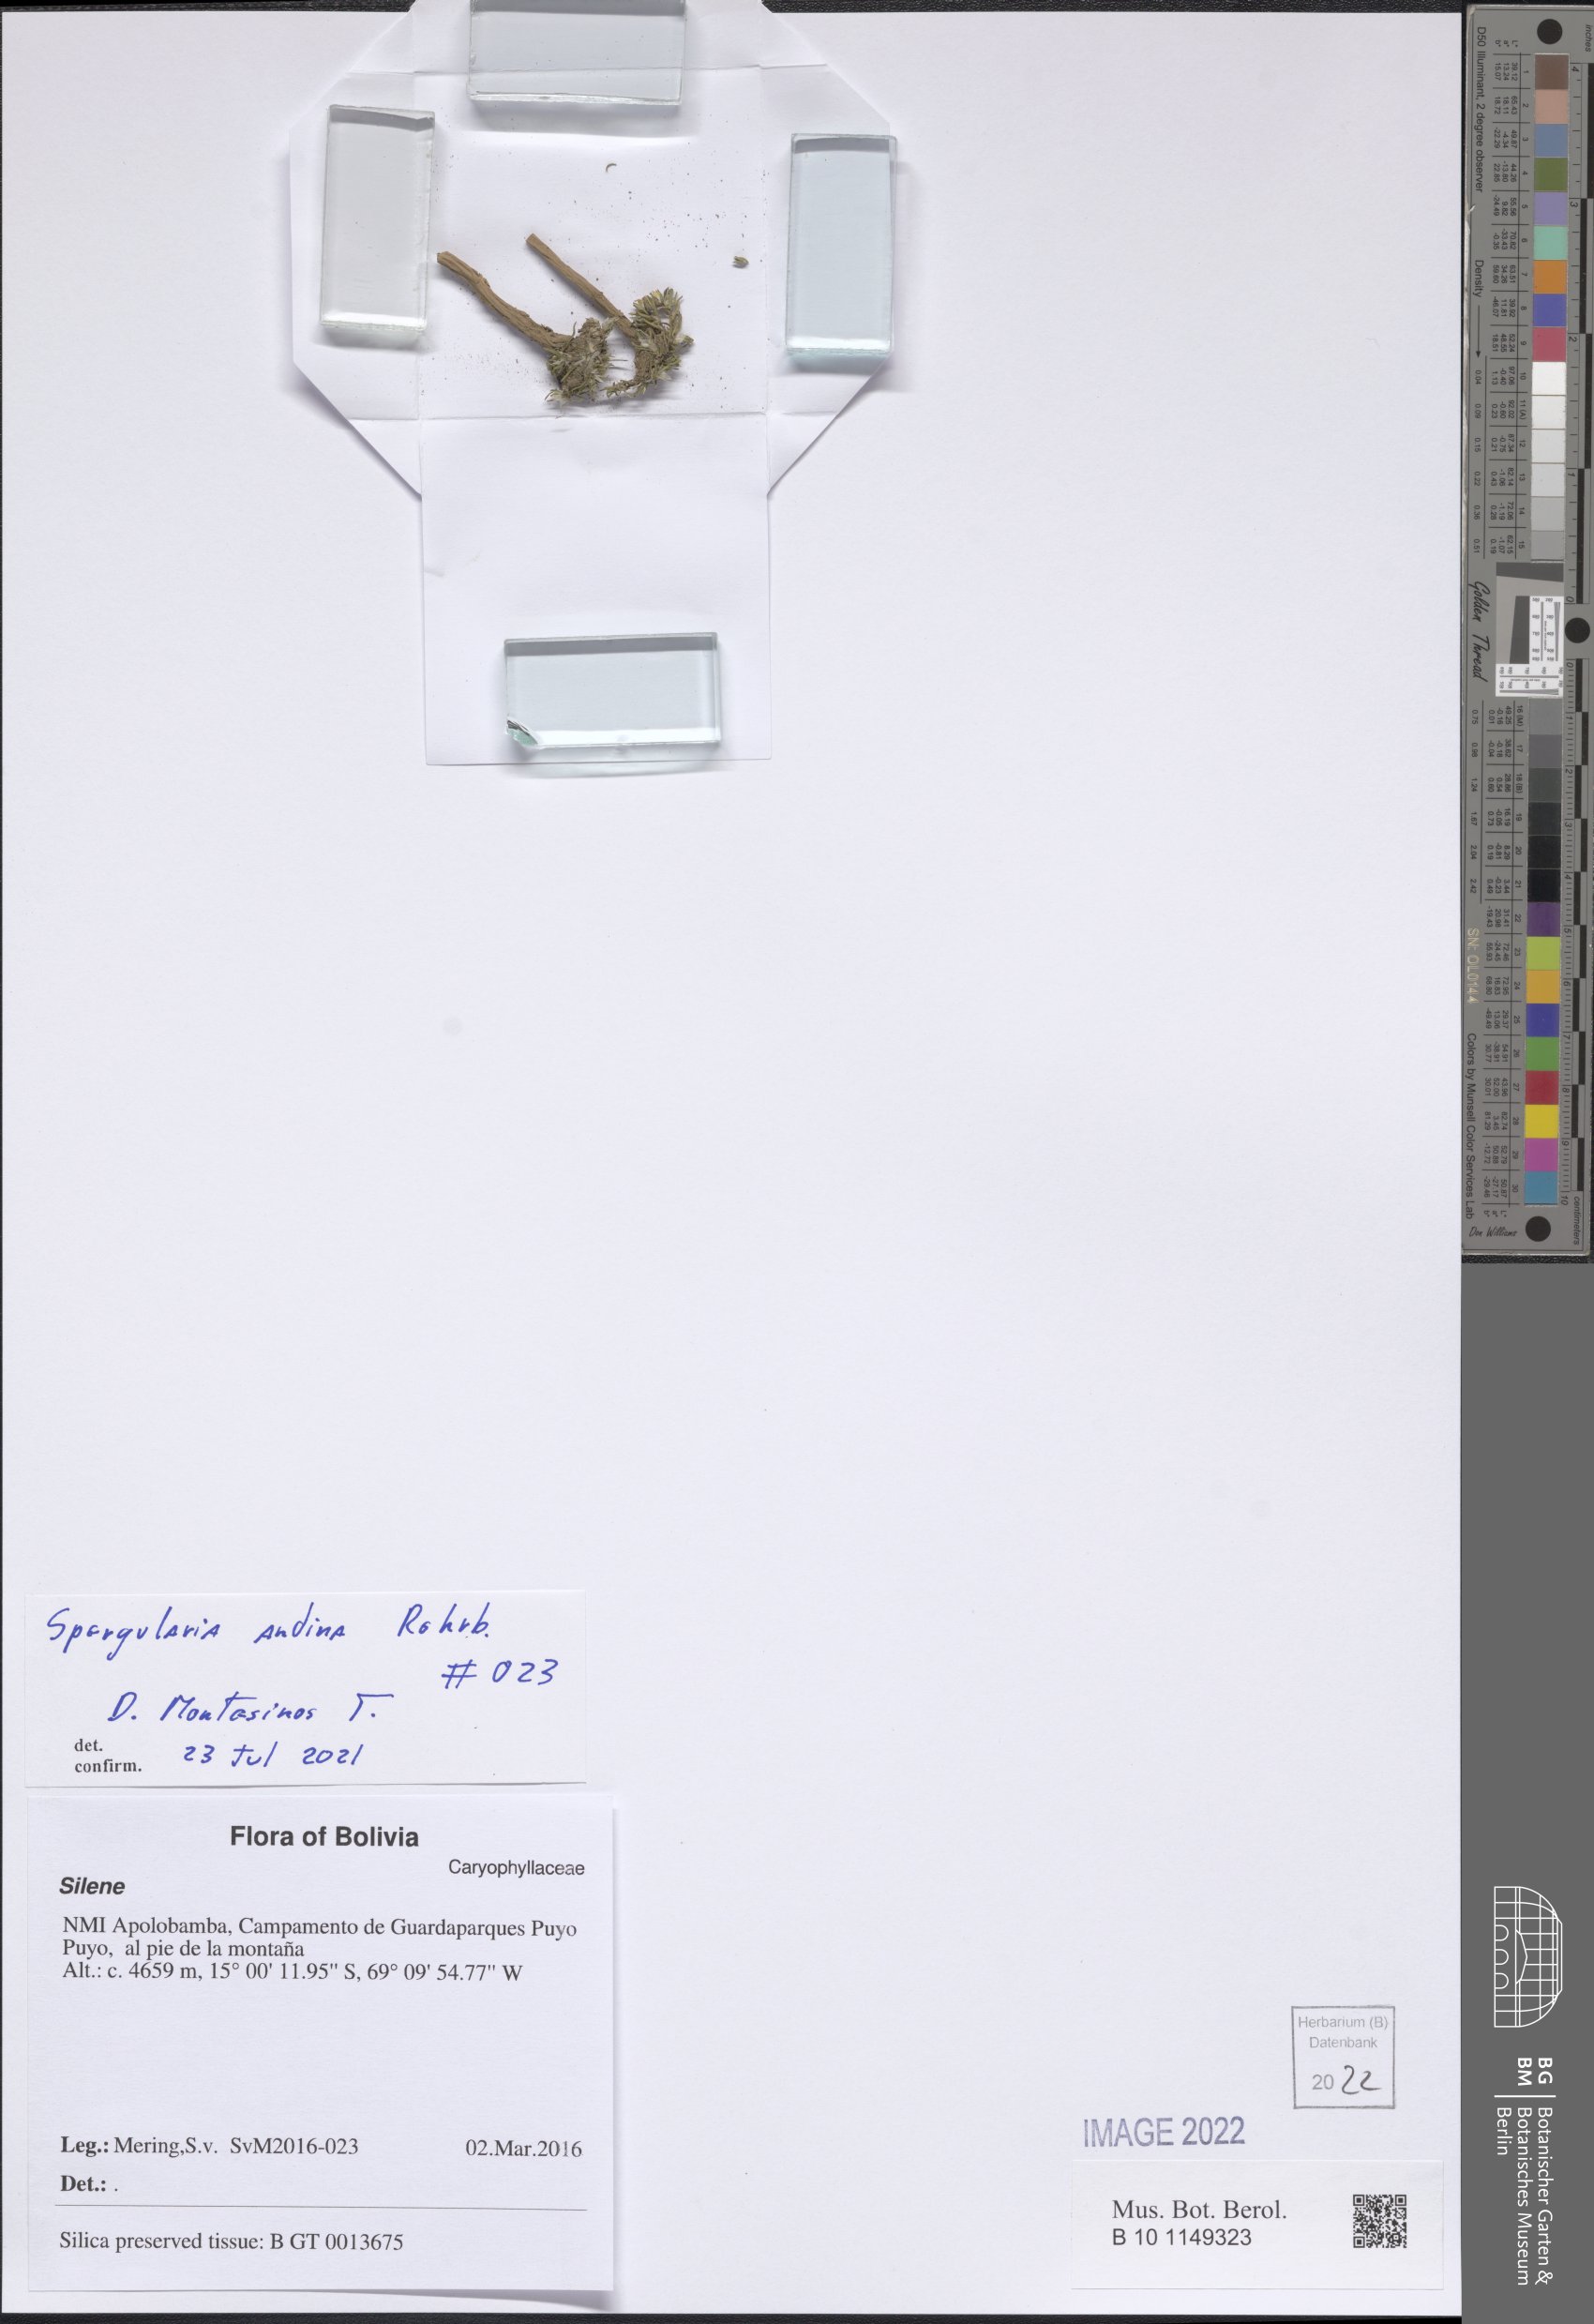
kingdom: Plantae
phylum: Tracheophyta
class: Magnoliopsida
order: Caryophyllales
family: Caryophyllaceae
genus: Spergularia
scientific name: Spergularia andina
